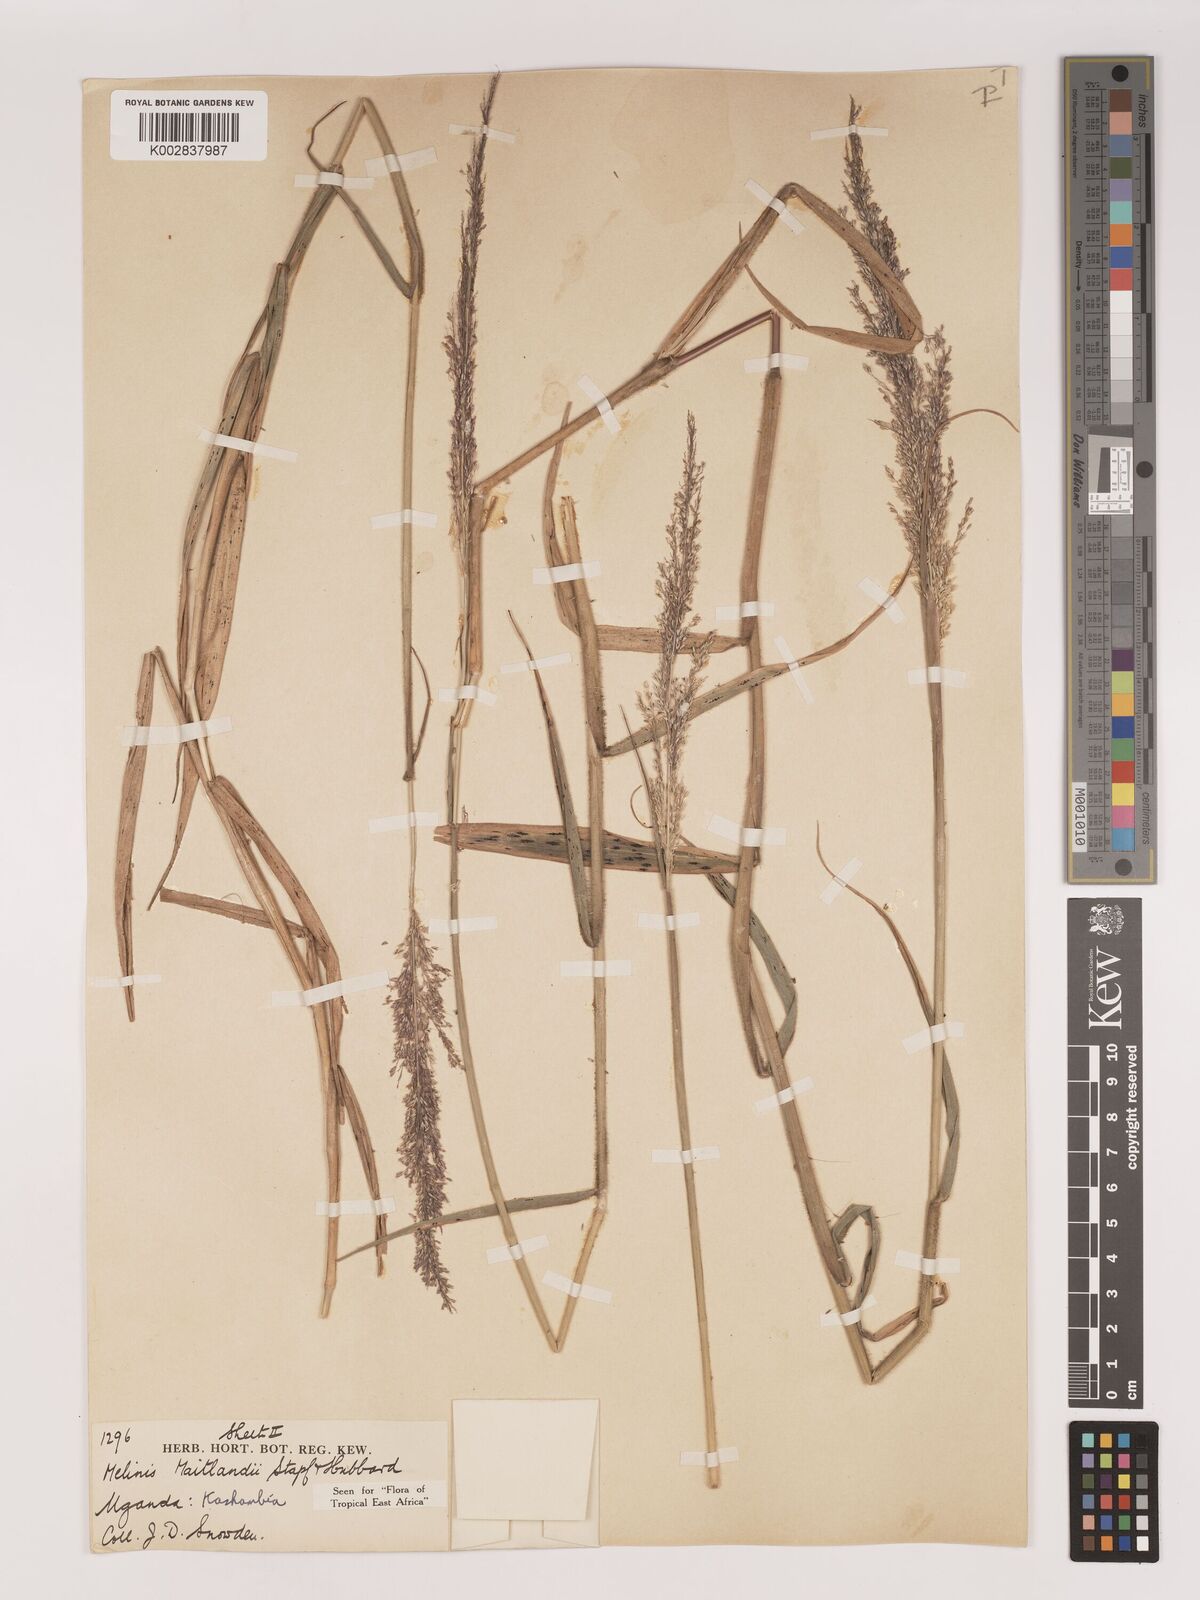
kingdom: Plantae
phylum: Tracheophyta
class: Liliopsida
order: Poales
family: Poaceae
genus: Melinis
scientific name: Melinis minutiflora
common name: Molassesgrass
